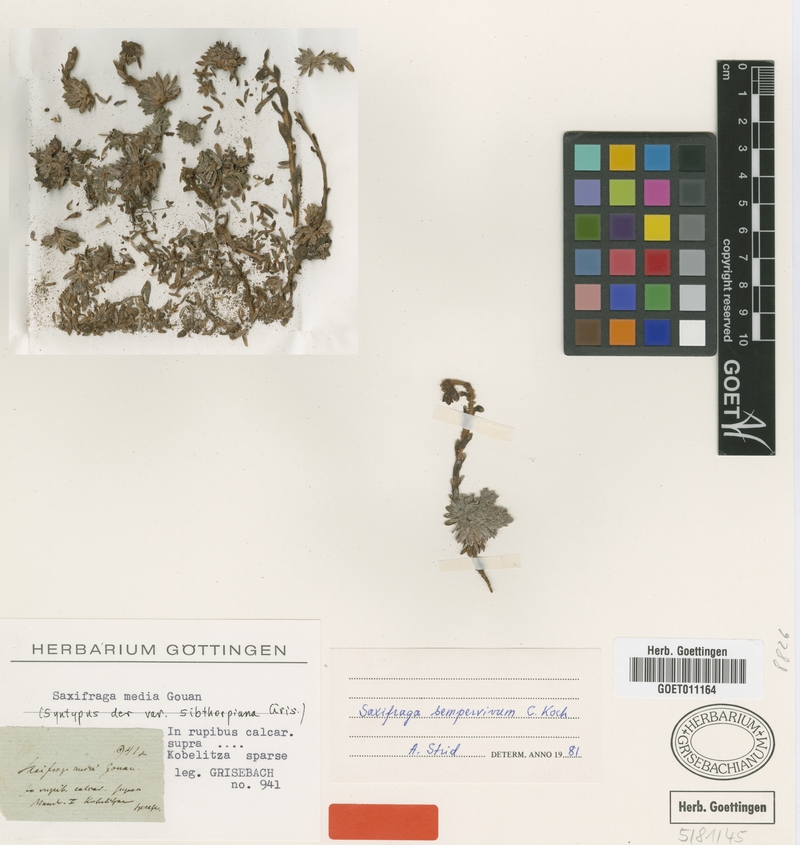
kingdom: Plantae
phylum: Tracheophyta
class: Magnoliopsida
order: Saxifragales
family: Saxifragaceae
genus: Saxifraga
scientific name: Saxifraga sempervivum
